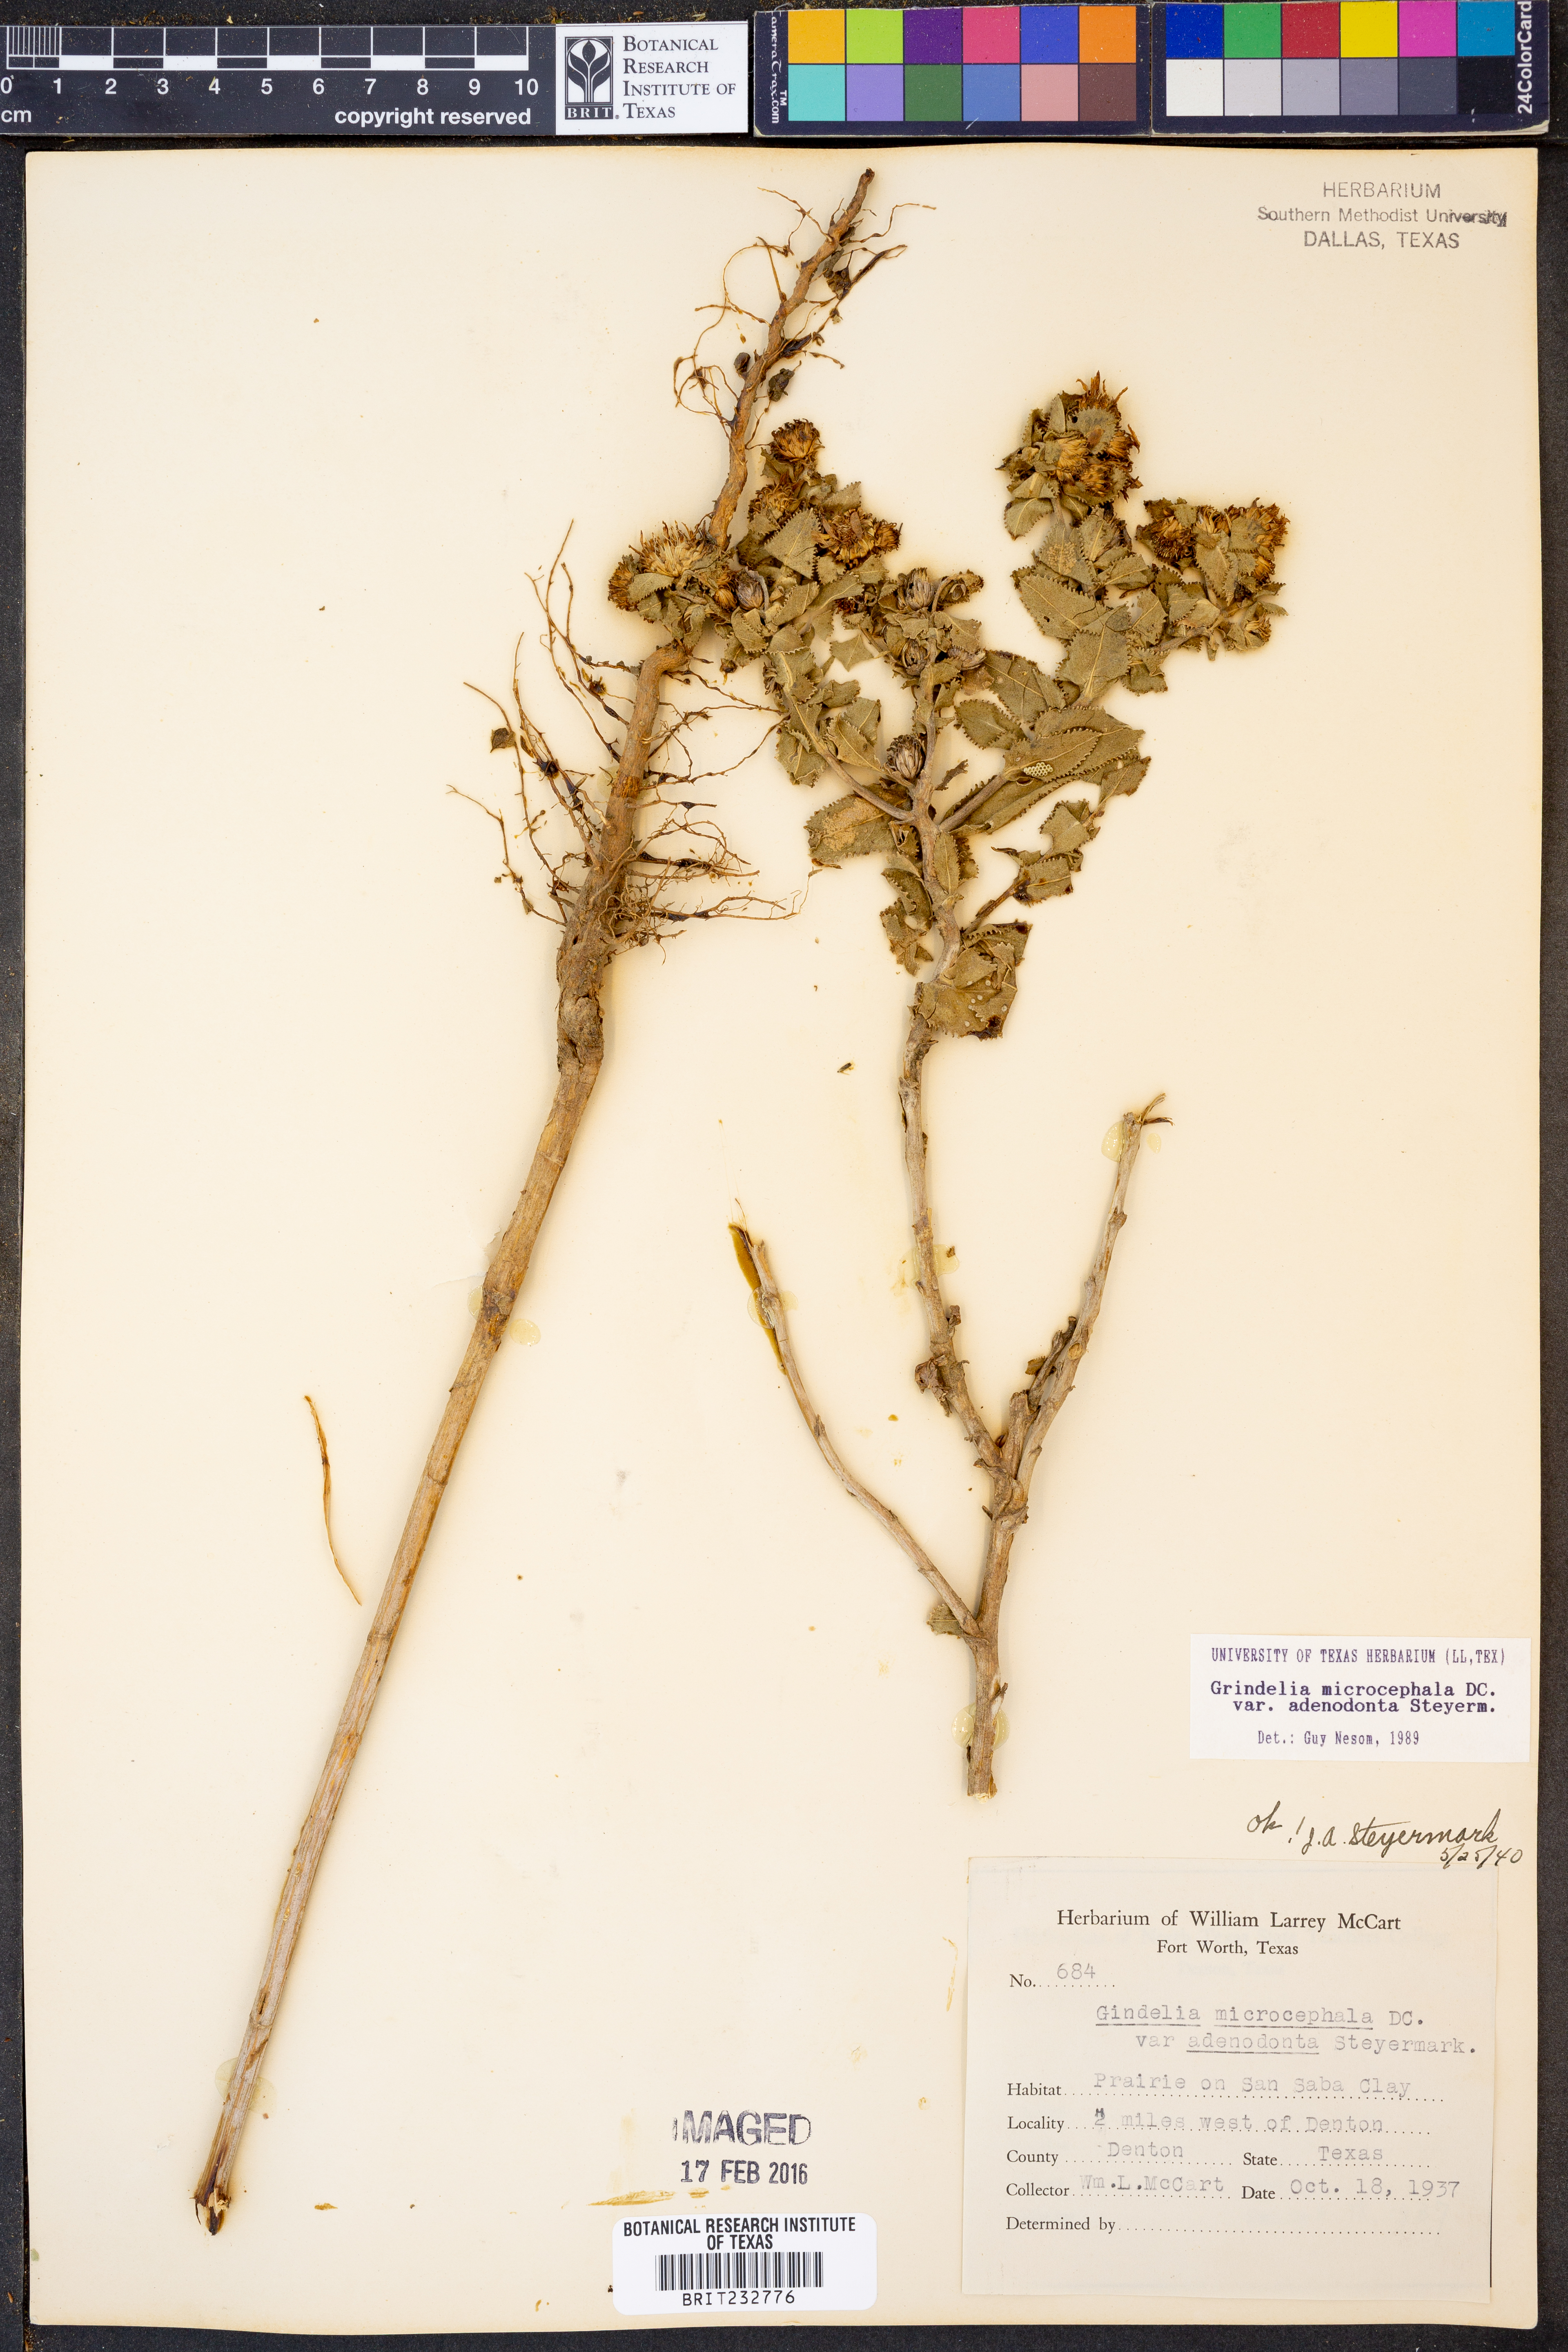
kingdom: Plantae
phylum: Tracheophyta
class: Magnoliopsida
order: Asterales
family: Asteraceae
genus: Grindelia
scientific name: Grindelia adenodonta
